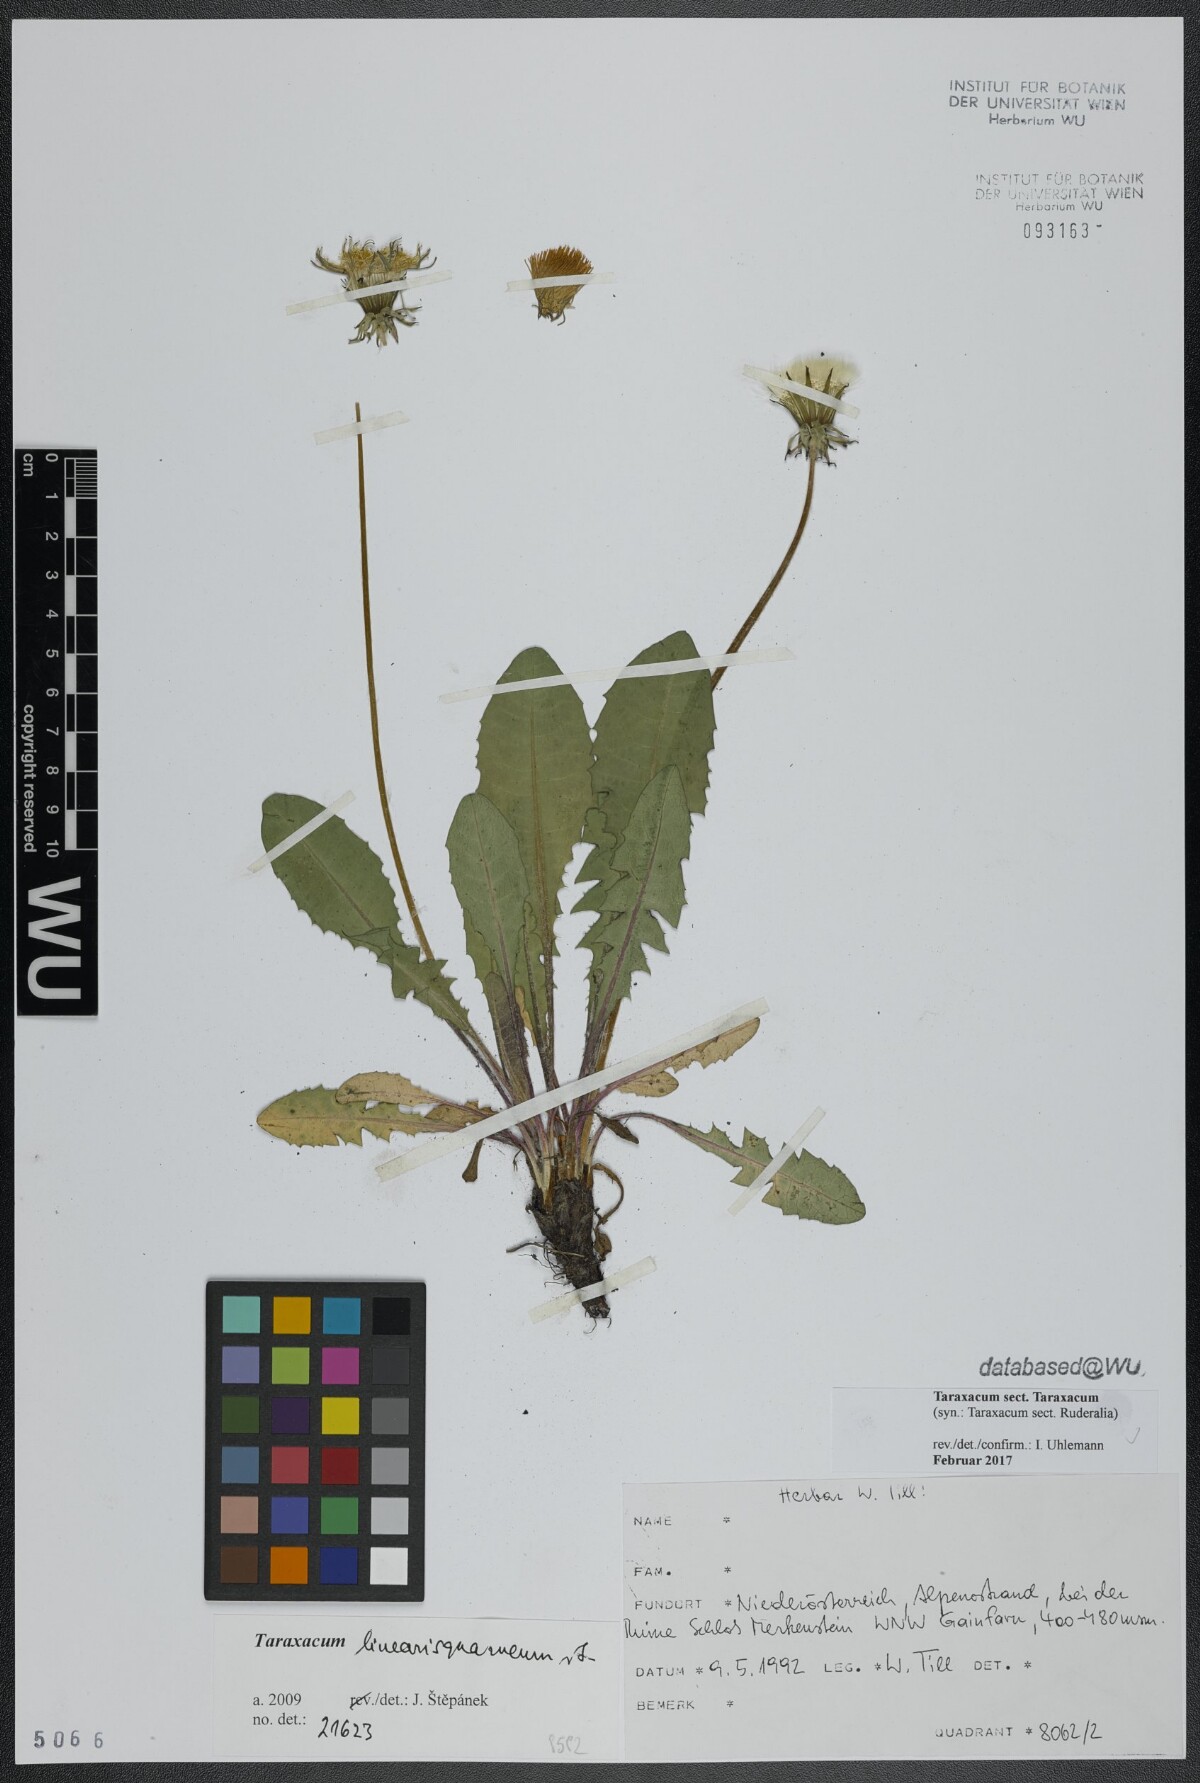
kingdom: Plantae
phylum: Tracheophyta
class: Magnoliopsida
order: Asterales
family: Asteraceae
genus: Taraxacum
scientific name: Taraxacum
